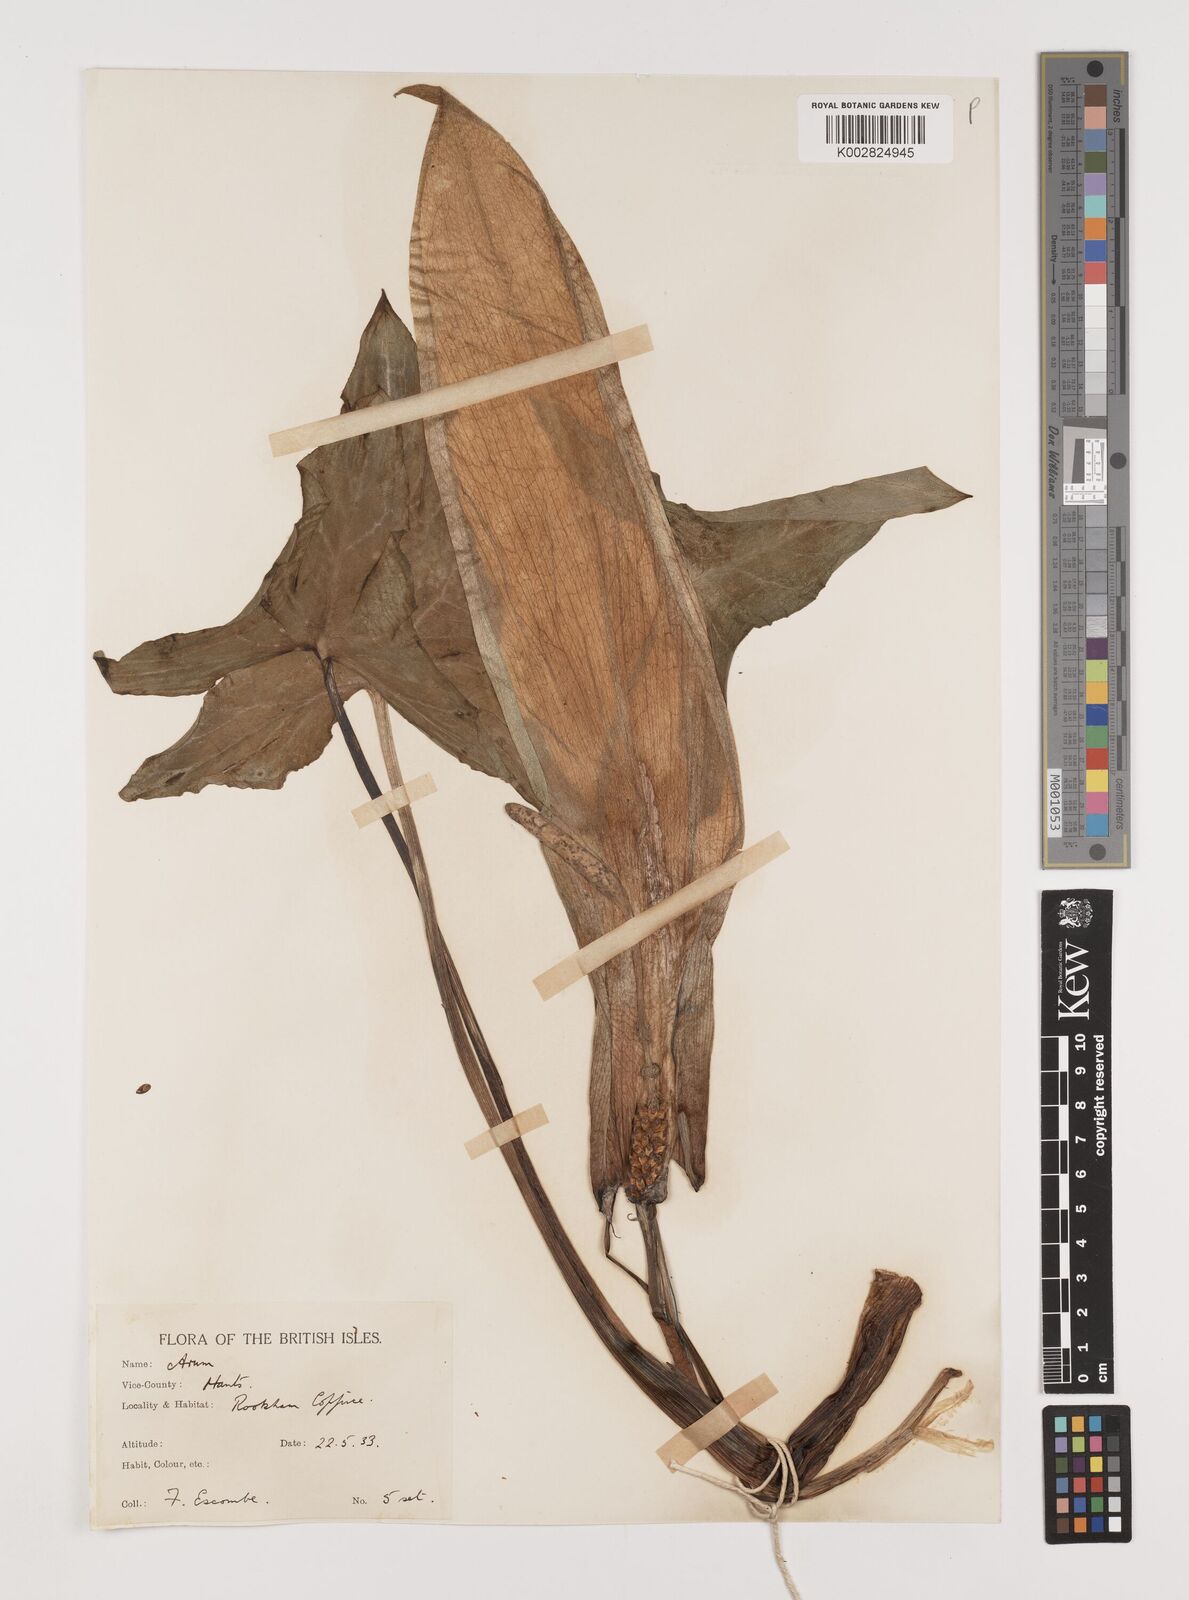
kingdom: Plantae
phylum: Tracheophyta
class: Liliopsida
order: Alismatales
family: Araceae
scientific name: Araceae
